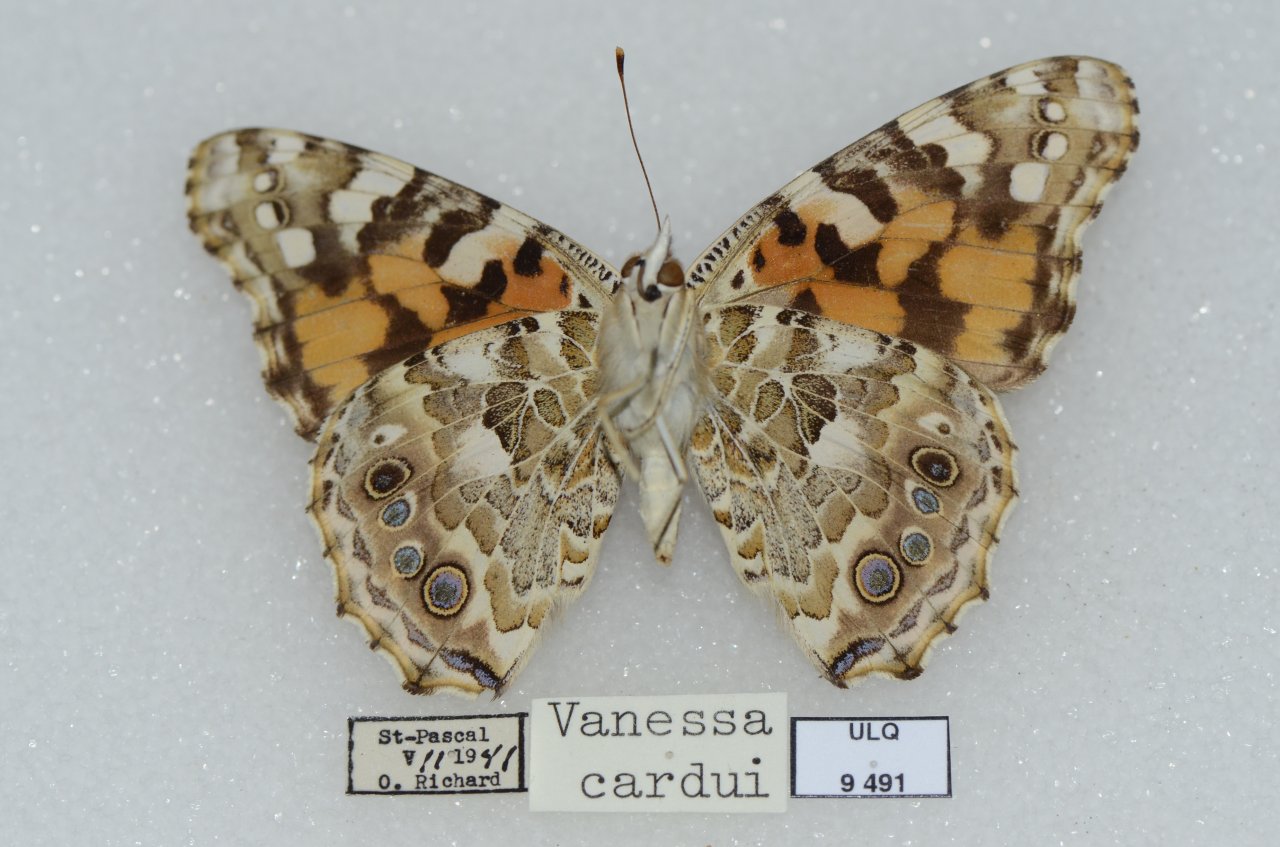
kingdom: Animalia
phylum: Arthropoda
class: Insecta
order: Lepidoptera
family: Nymphalidae
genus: Vanessa
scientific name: Vanessa cardui
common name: Painted Lady
